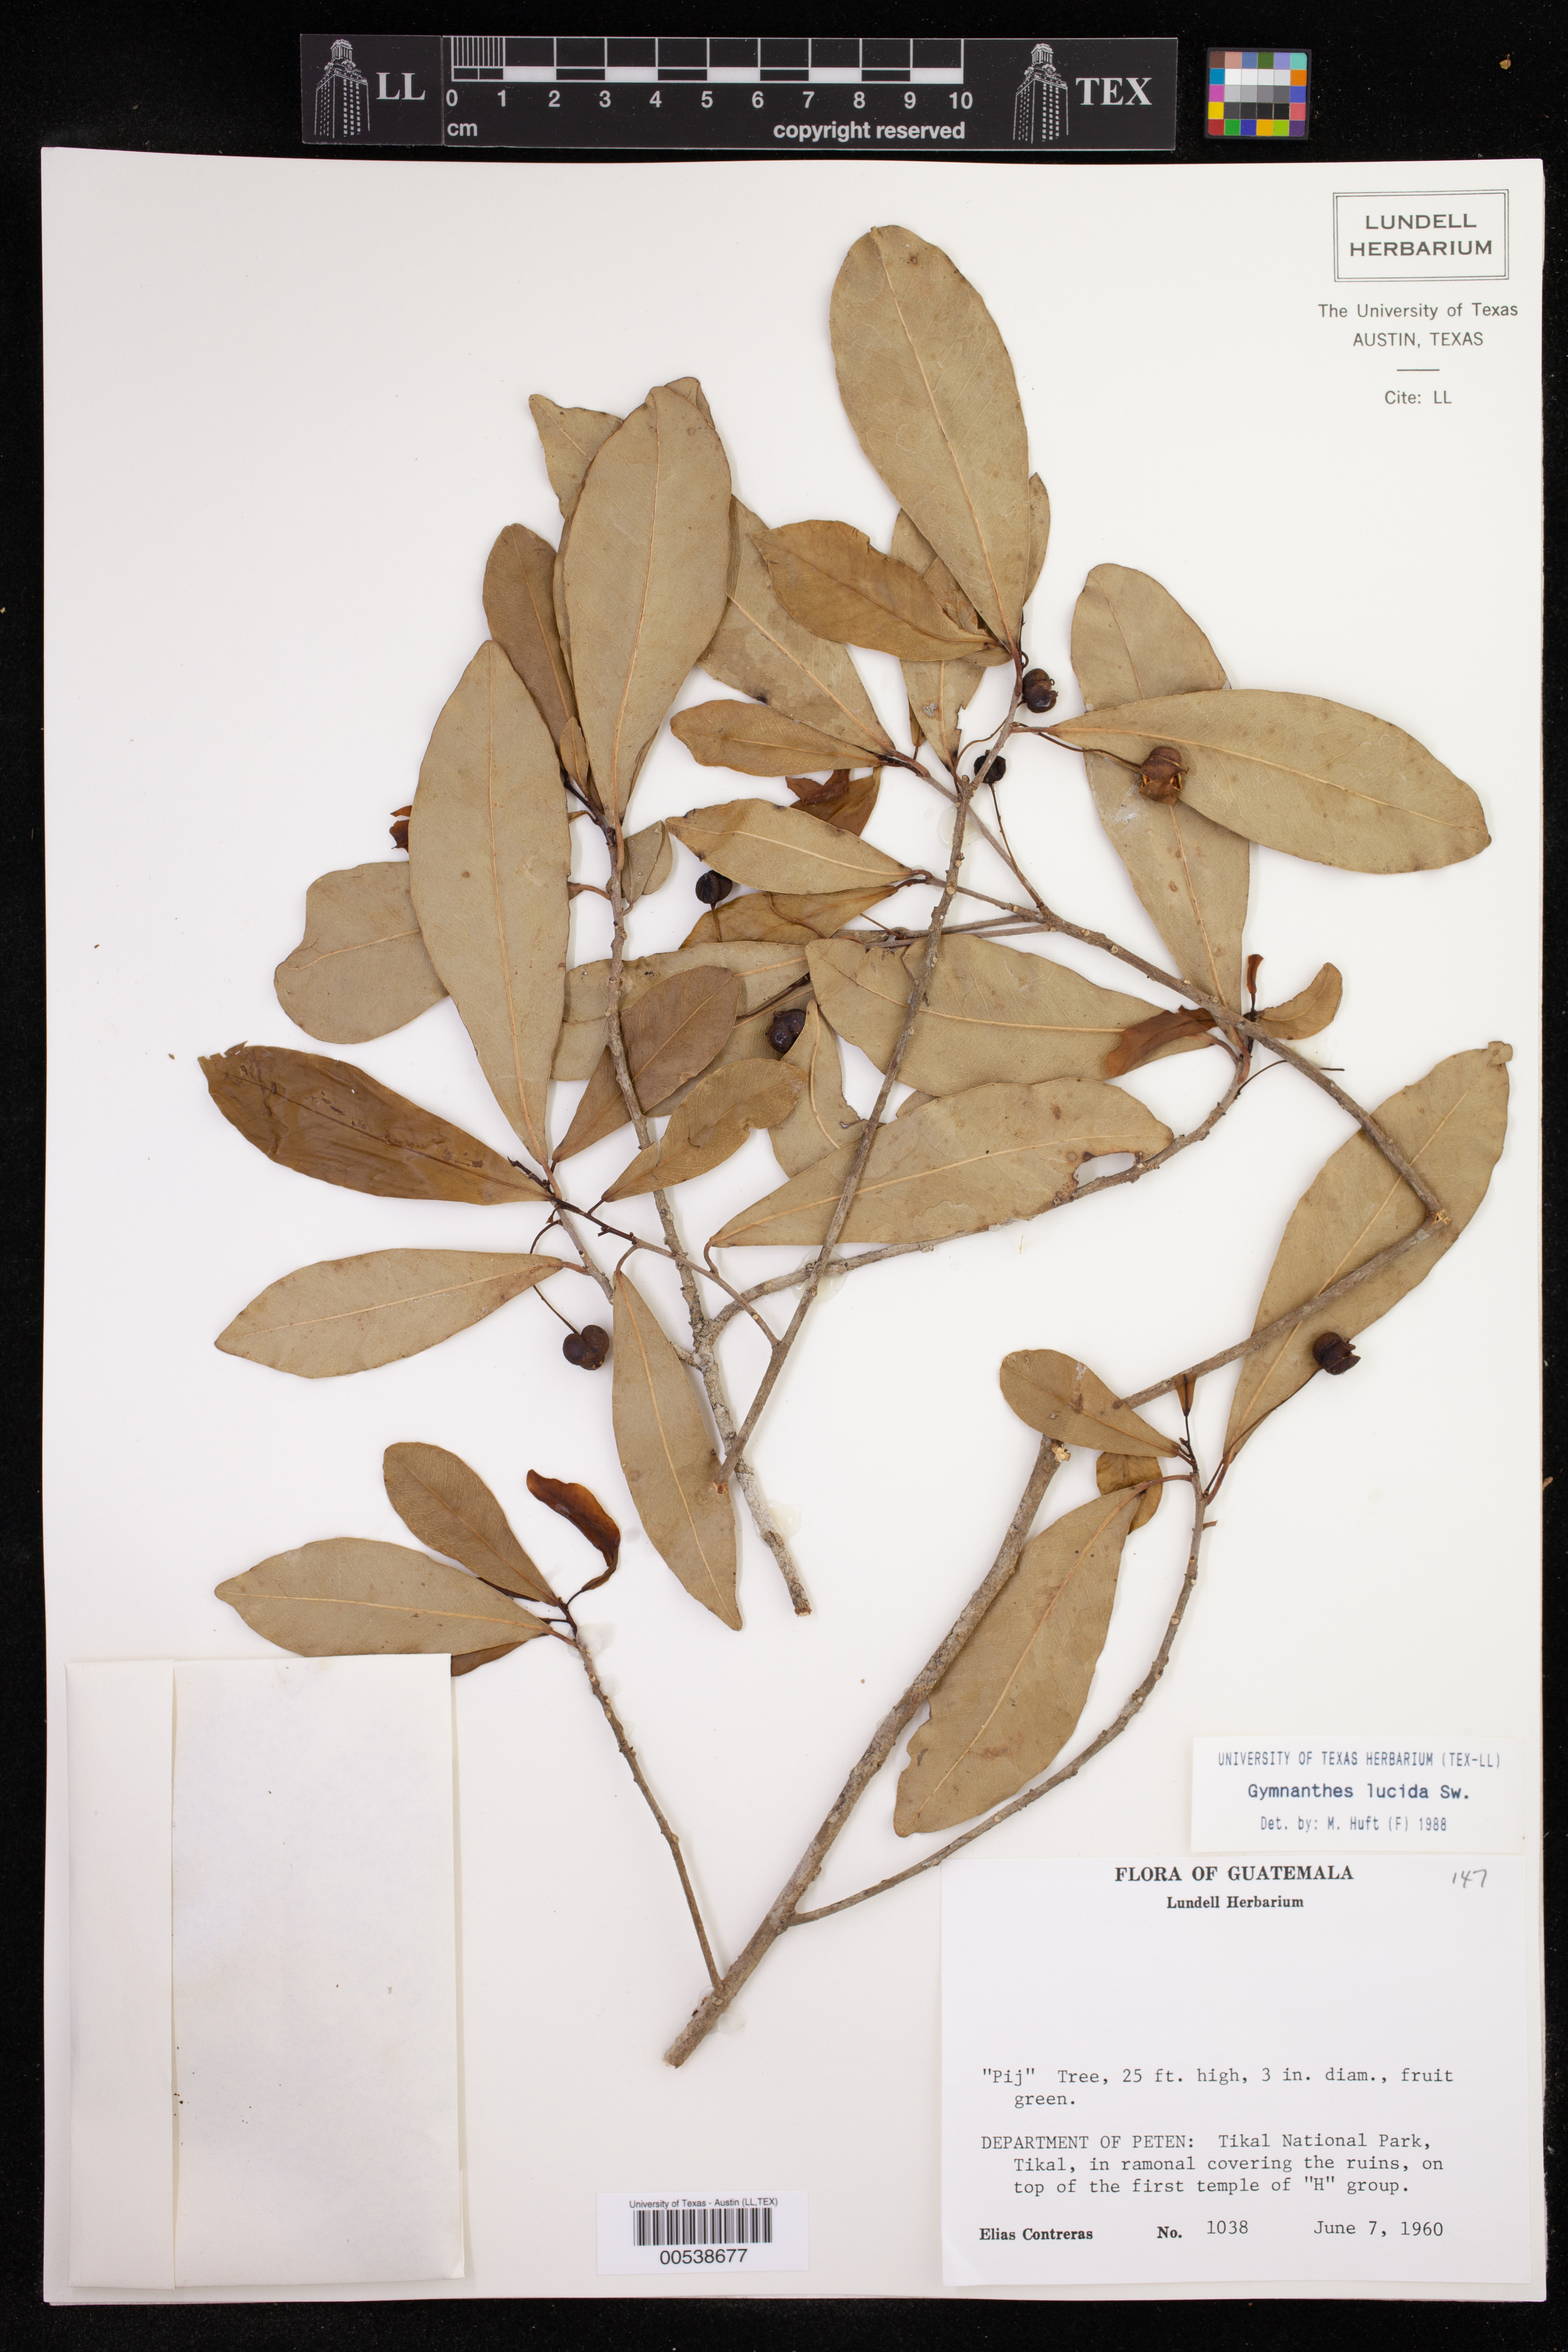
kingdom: Plantae
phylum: Tracheophyta
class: Magnoliopsida
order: Malpighiales
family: Euphorbiaceae
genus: Gymnanthes
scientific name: Gymnanthes lucida
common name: Oysterwood
